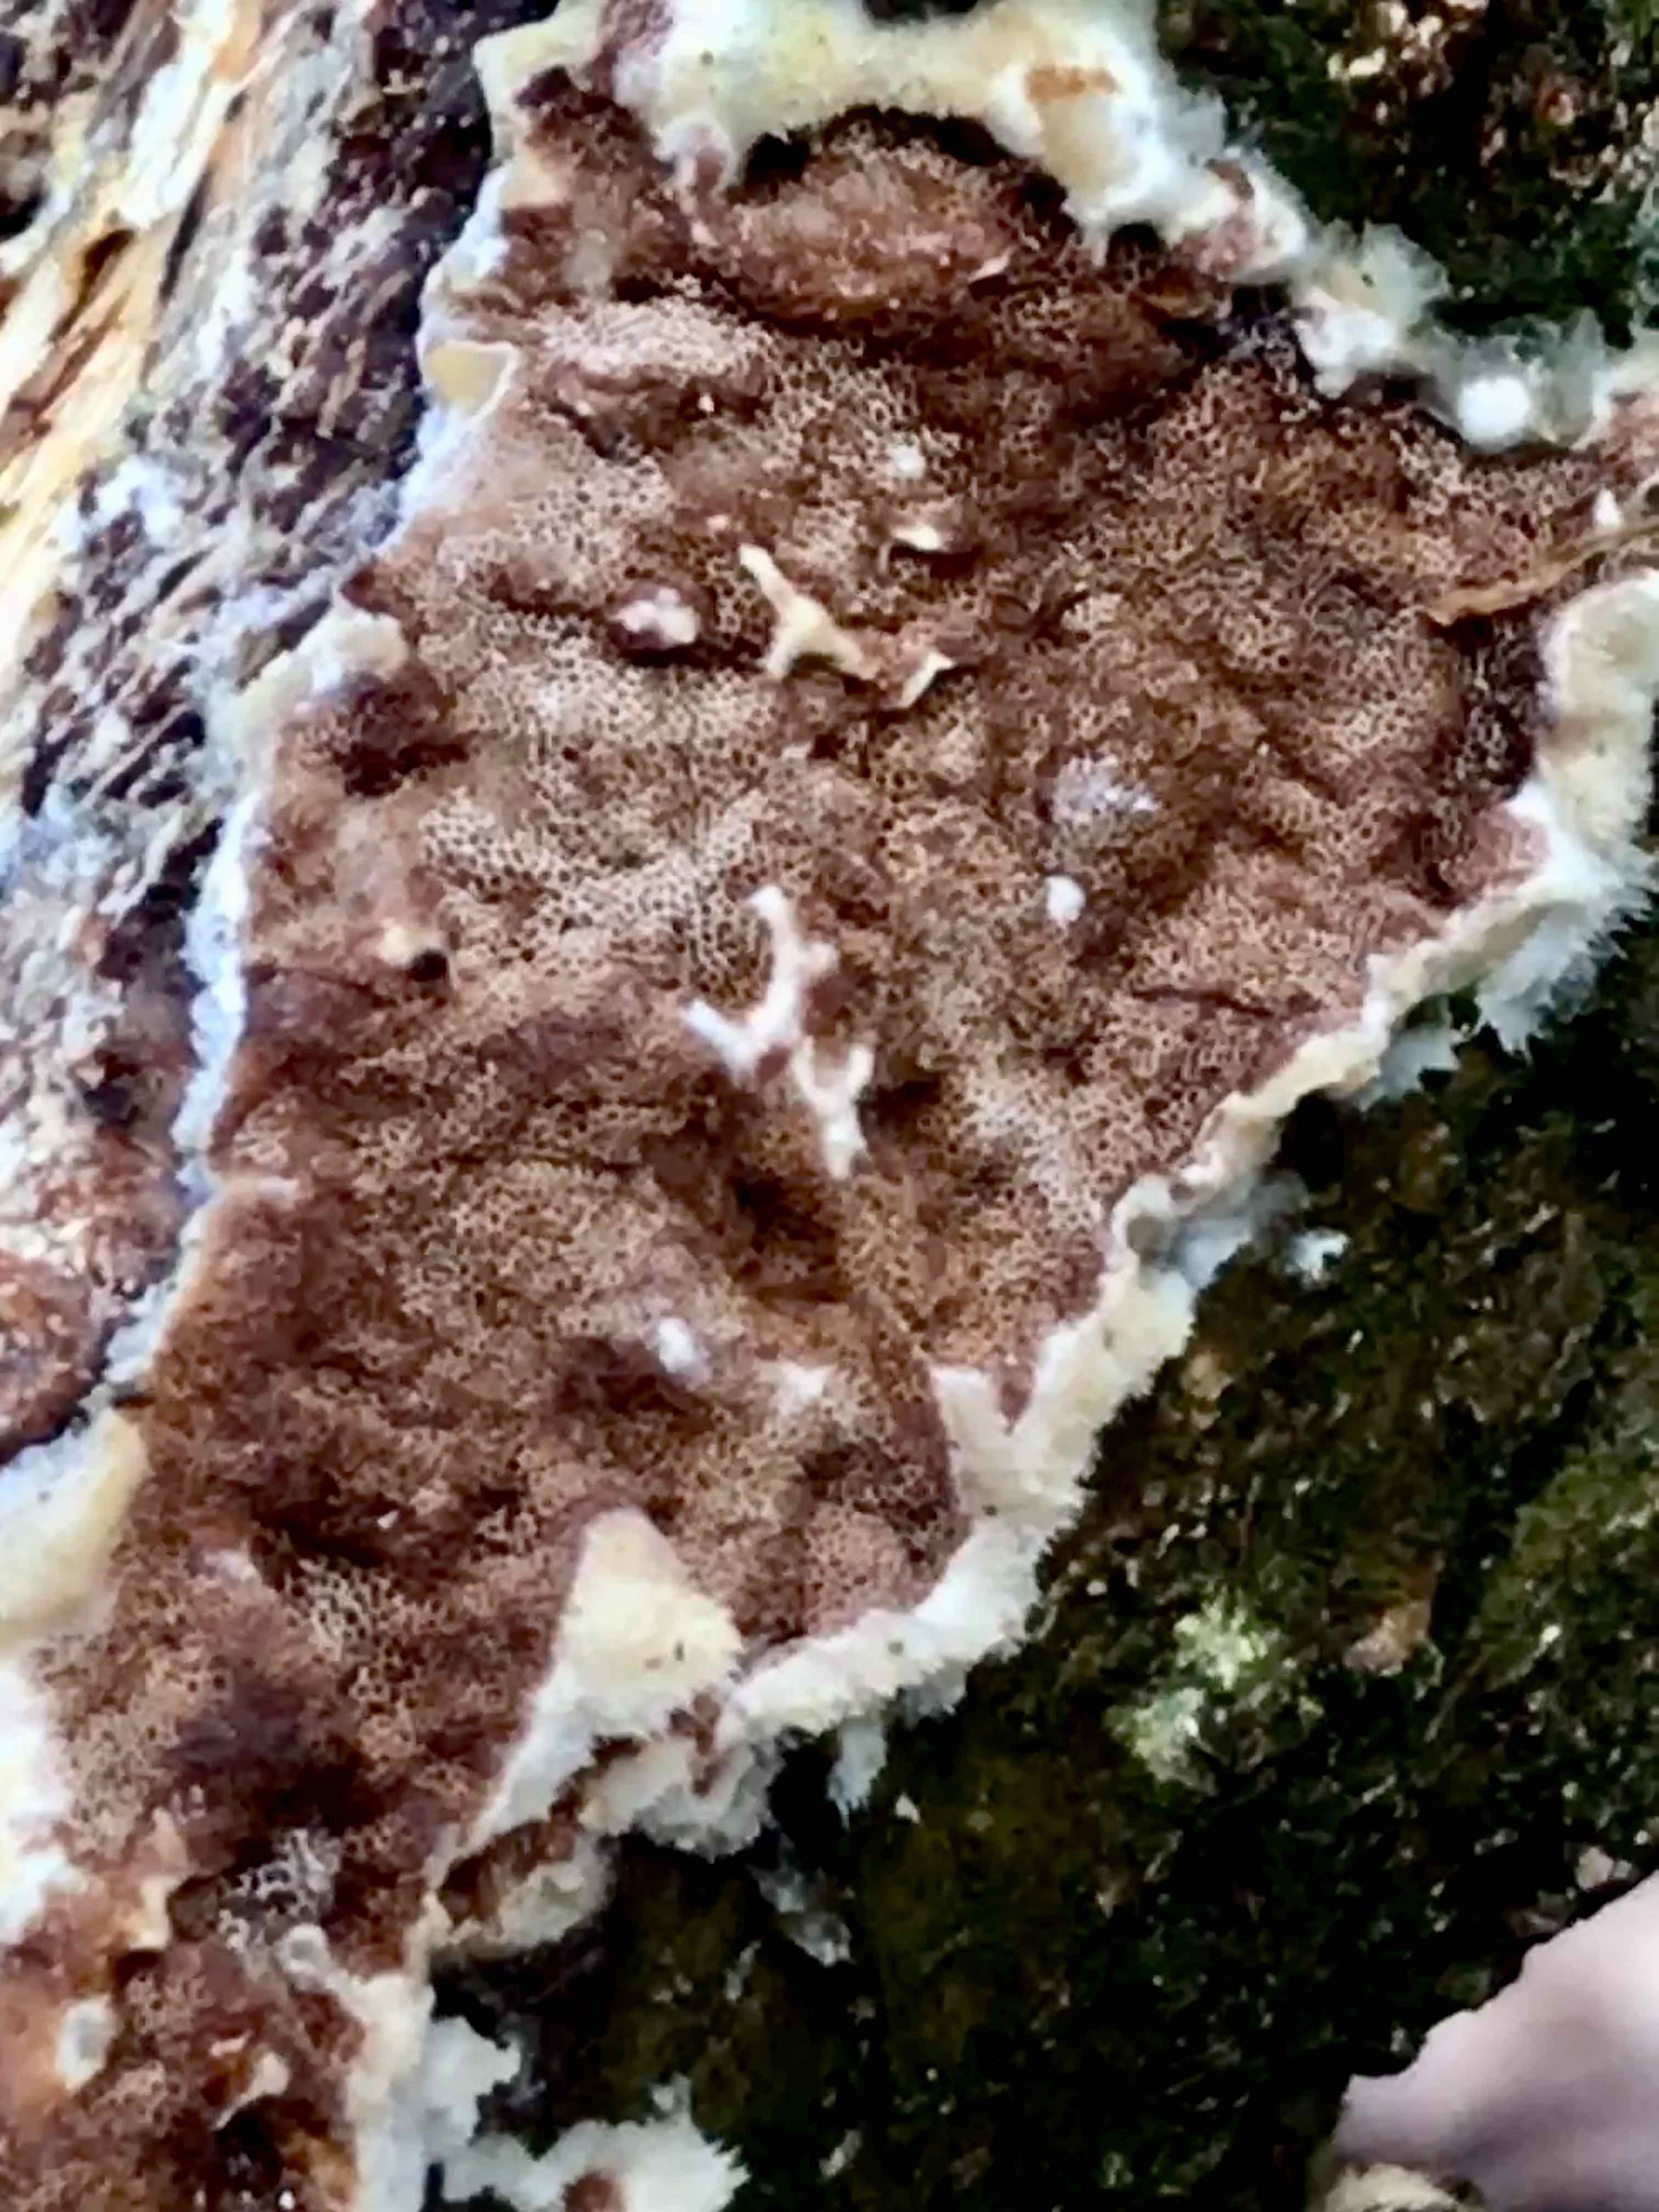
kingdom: Fungi
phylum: Basidiomycota
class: Agaricomycetes
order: Polyporales
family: Irpicaceae
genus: Meruliopsis
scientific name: Meruliopsis taxicola
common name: purpurbrun foldporesvamp
